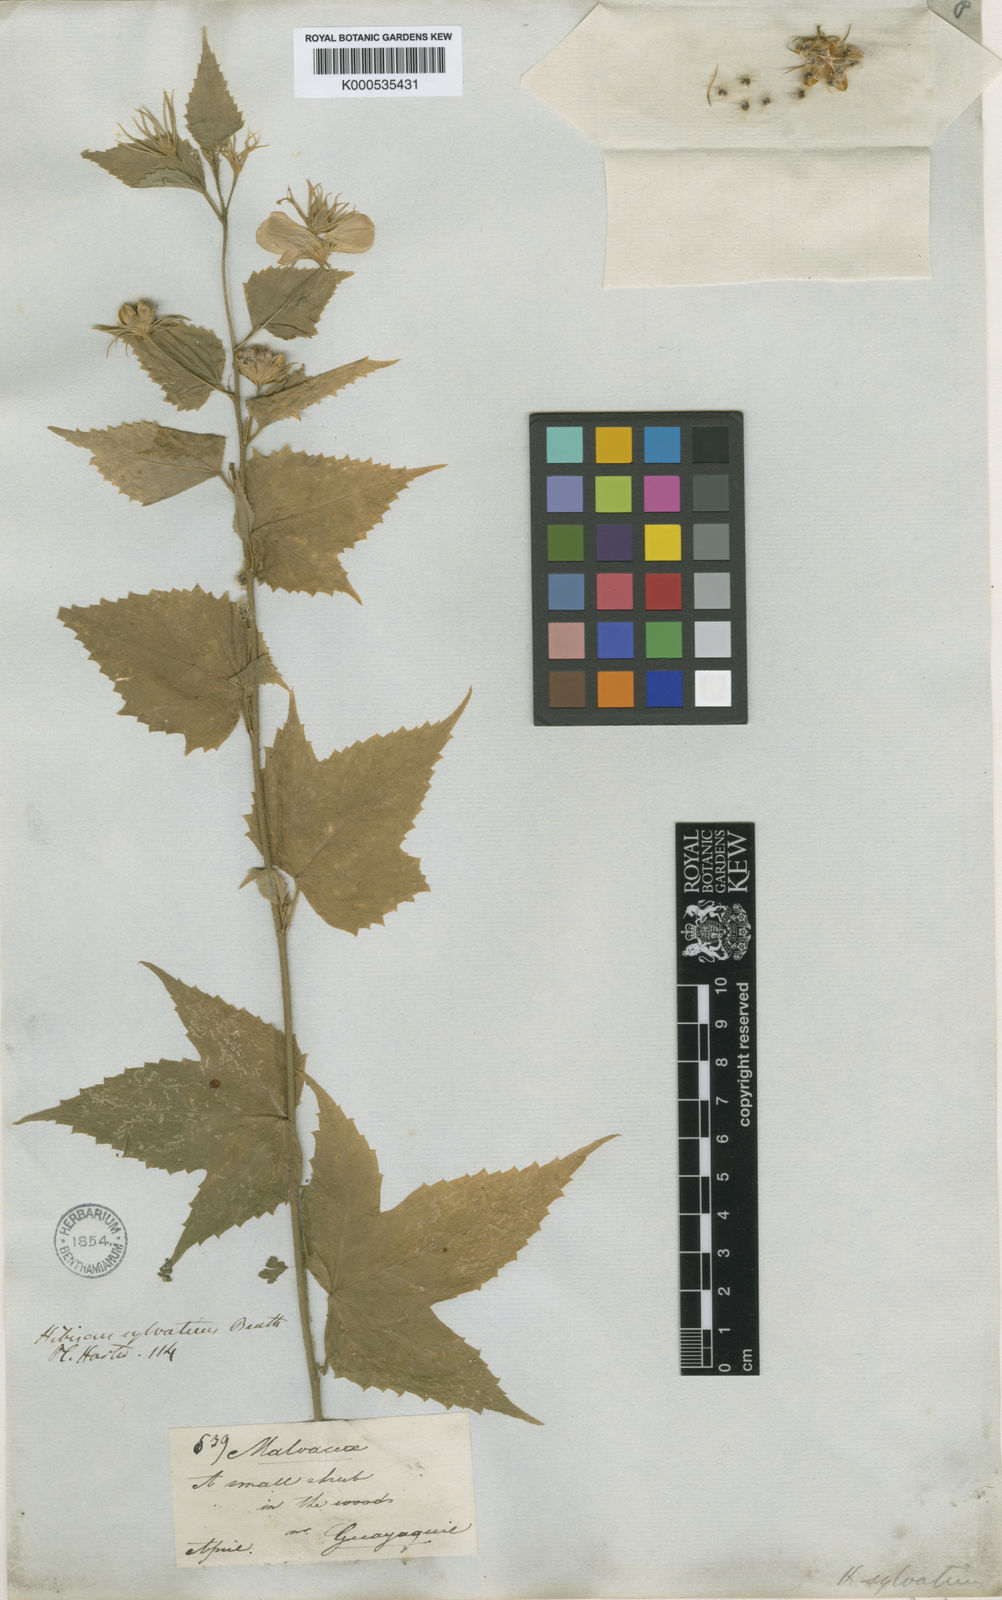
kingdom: Plantae
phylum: Tracheophyta
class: Magnoliopsida
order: Malvales
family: Malvaceae
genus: Hibiscus
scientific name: Hibiscus phoeniceus
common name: Brazilian rosemallow
